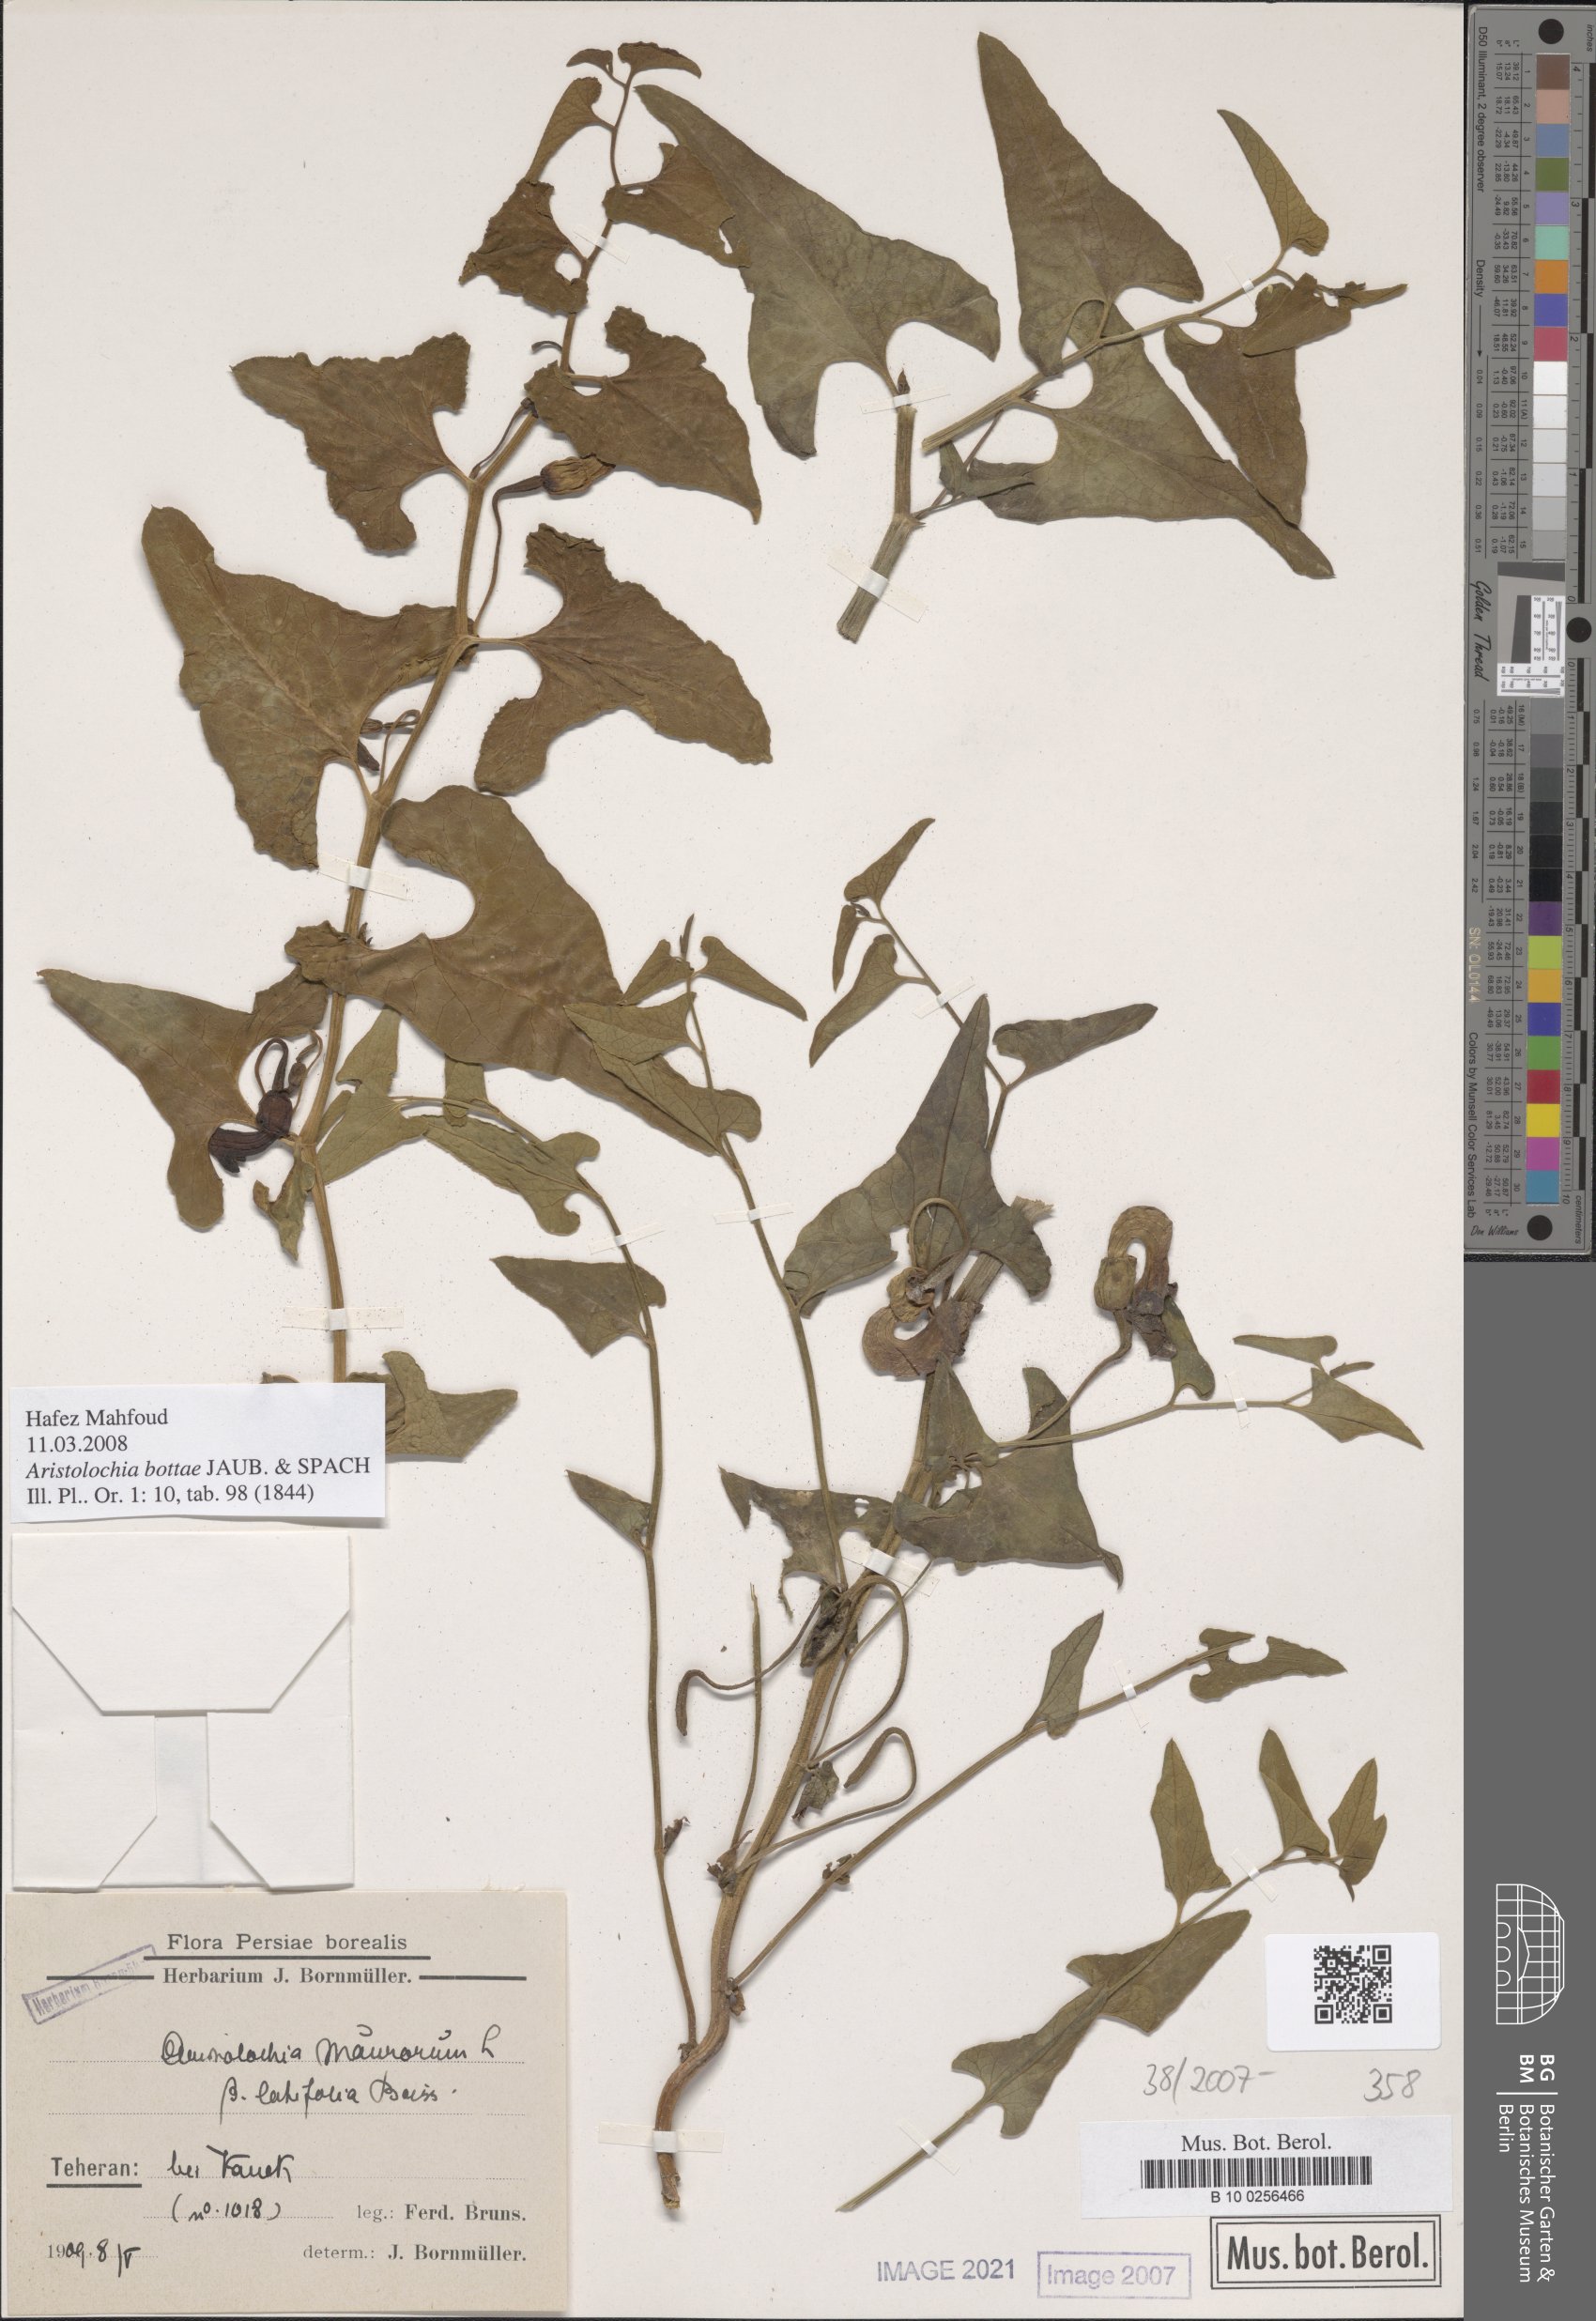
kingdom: Plantae
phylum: Tracheophyta
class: Magnoliopsida
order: Piperales
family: Aristolochiaceae
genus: Aristolochia
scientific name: Aristolochia bottae
